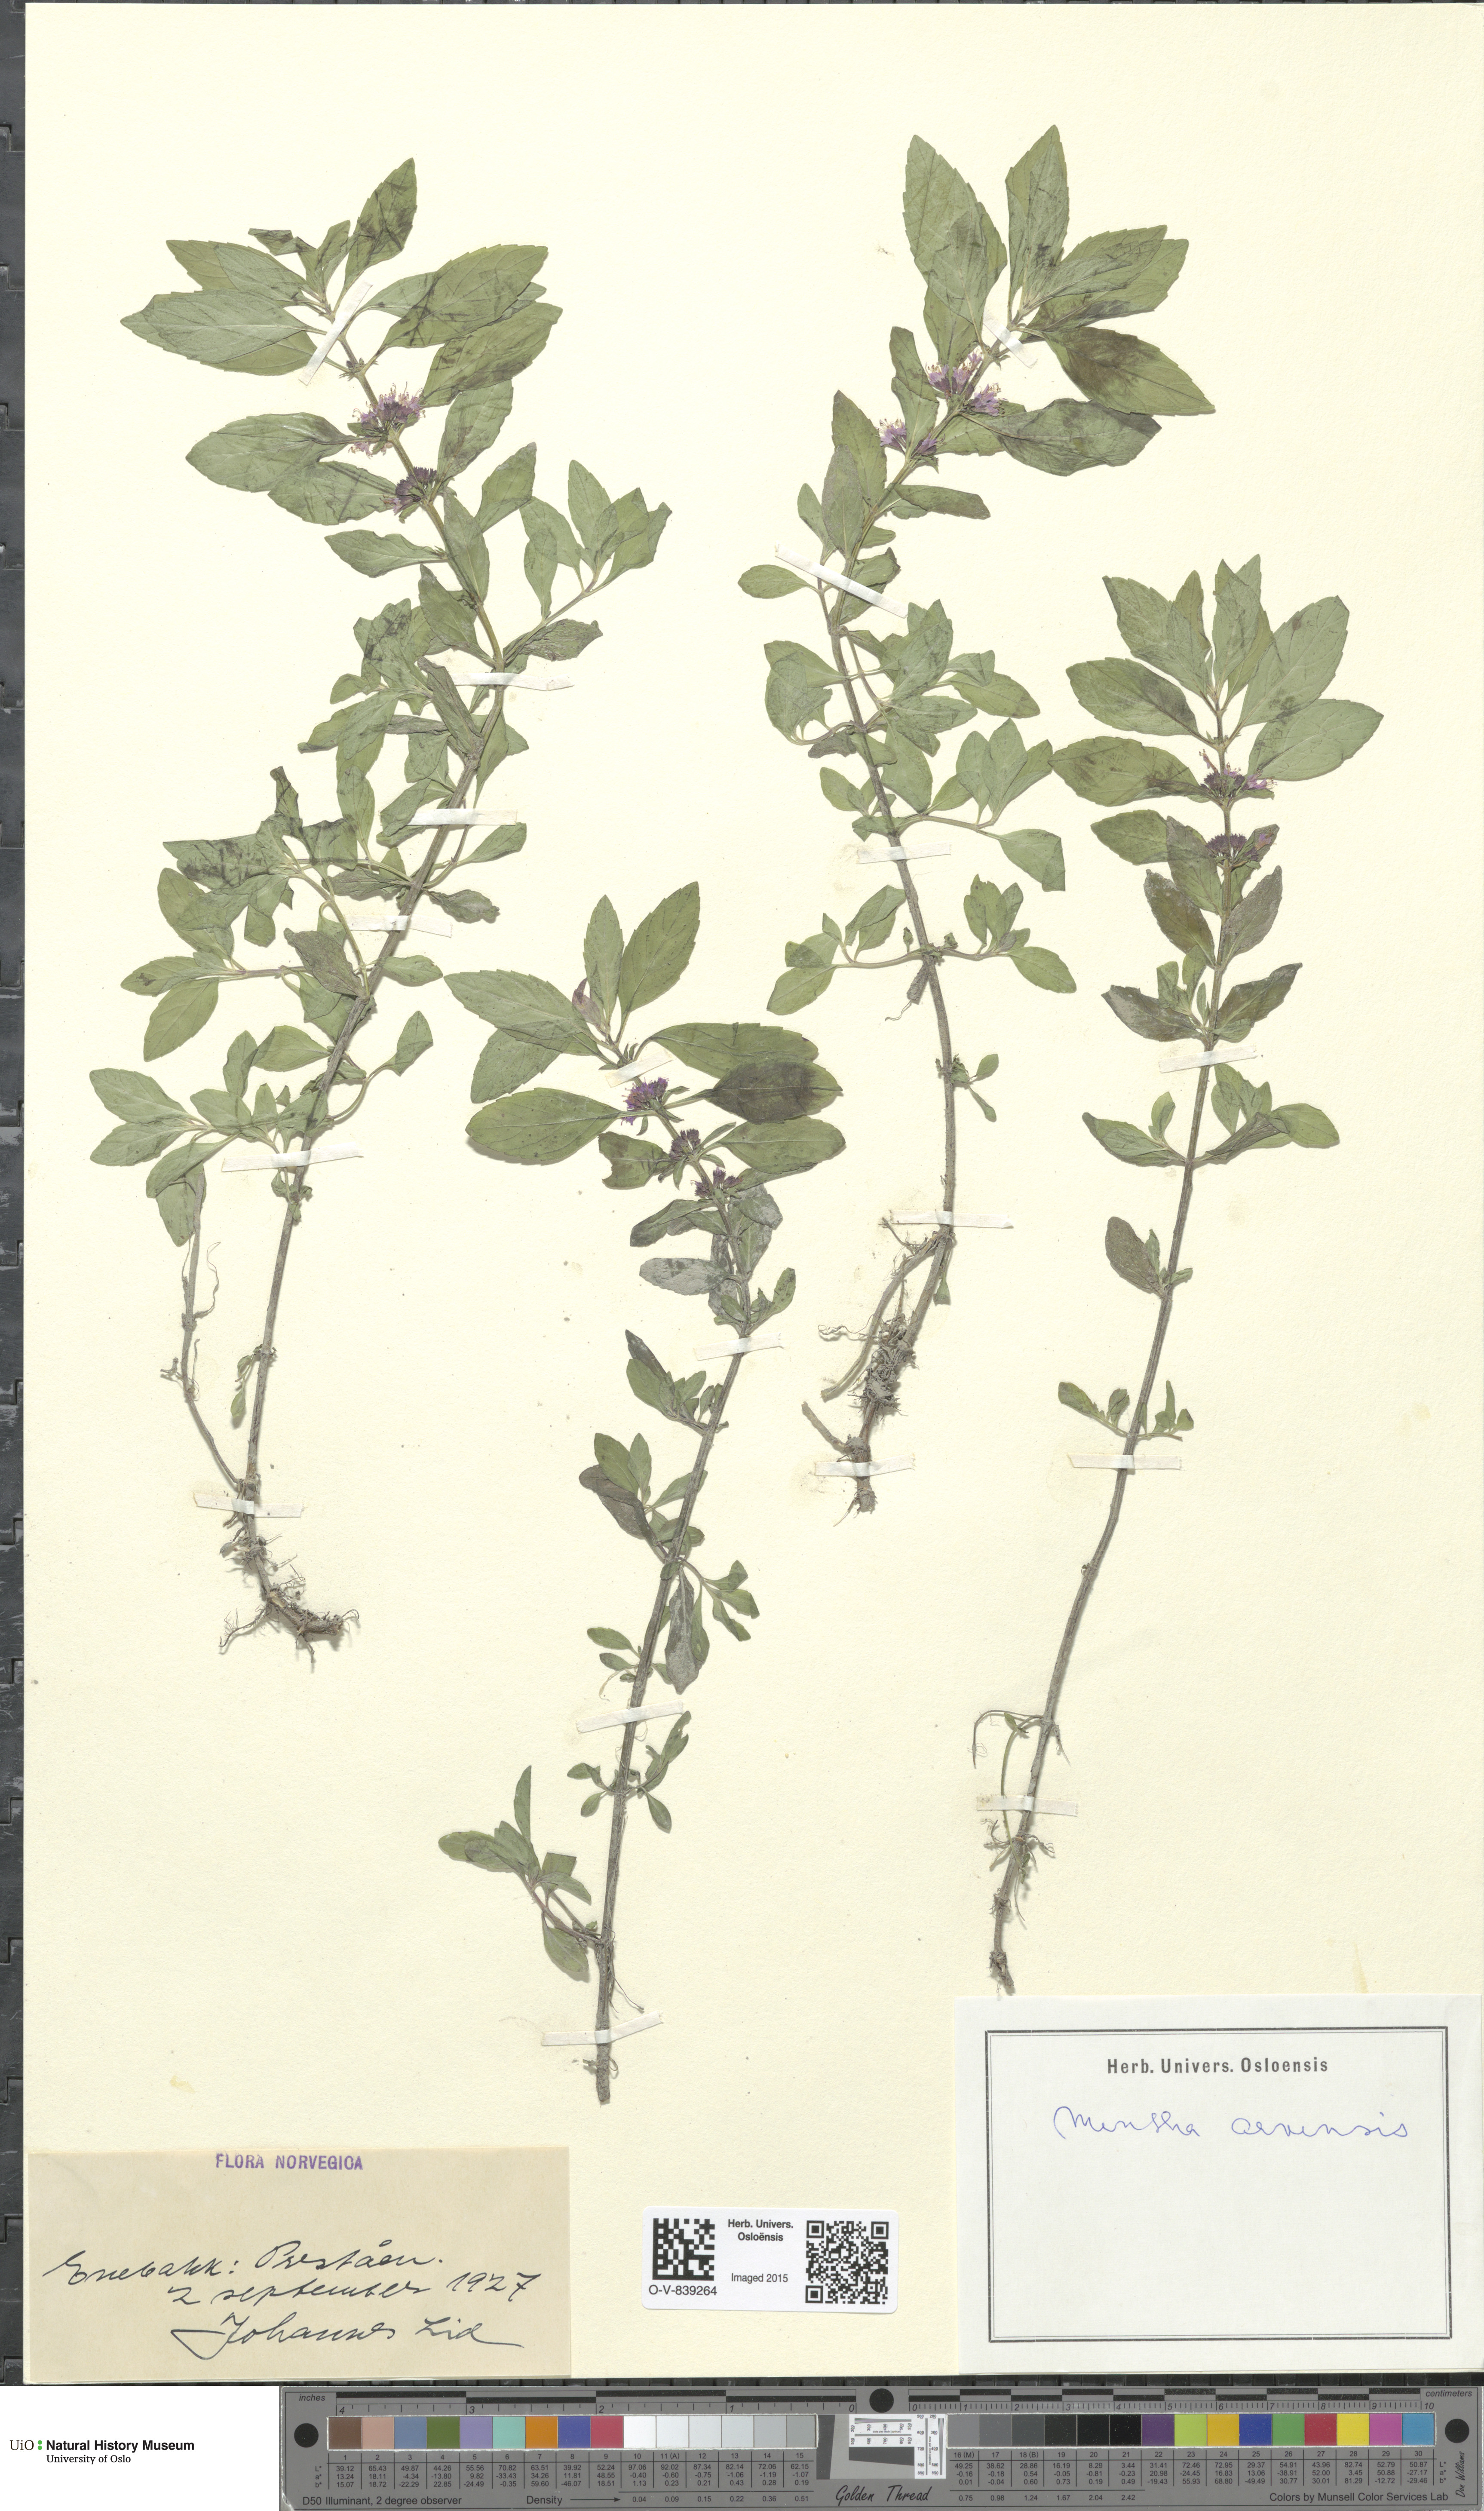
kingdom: Plantae
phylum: Tracheophyta
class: Magnoliopsida
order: Lamiales
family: Lamiaceae
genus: Mentha
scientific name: Mentha arvensis
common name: Corn mint
